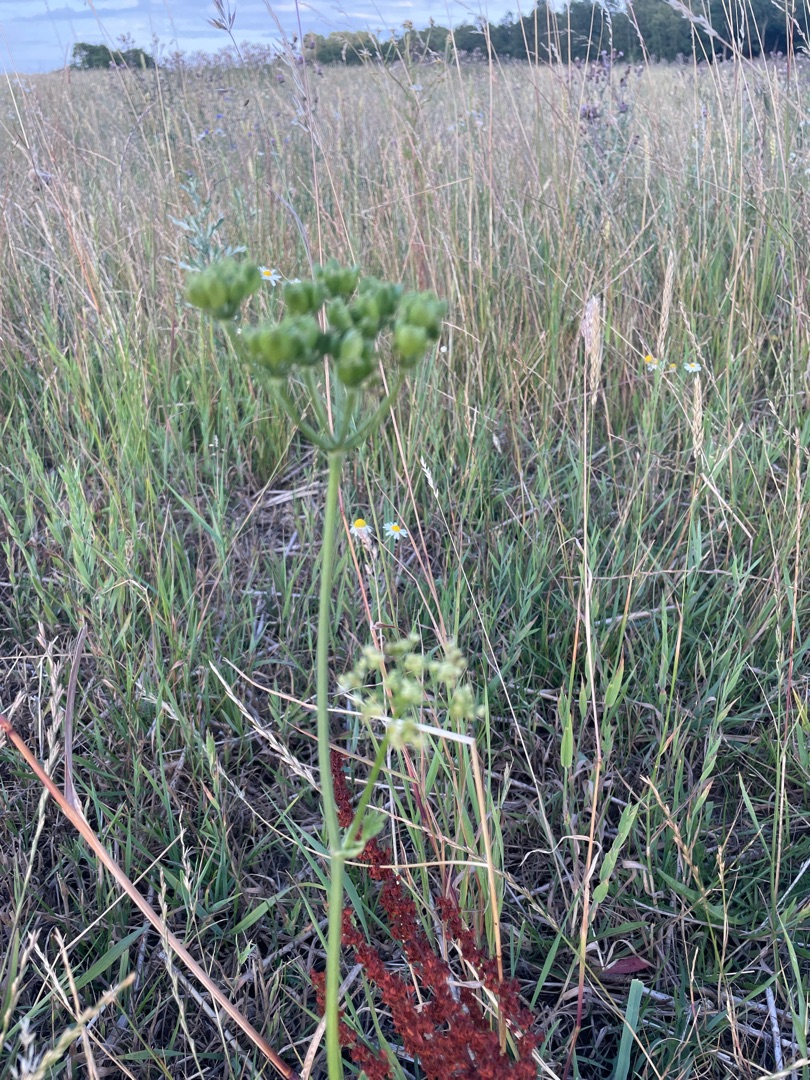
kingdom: Plantae
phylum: Tracheophyta
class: Magnoliopsida
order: Apiales
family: Apiaceae
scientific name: Apiaceae
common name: Skærmplantefamilien
